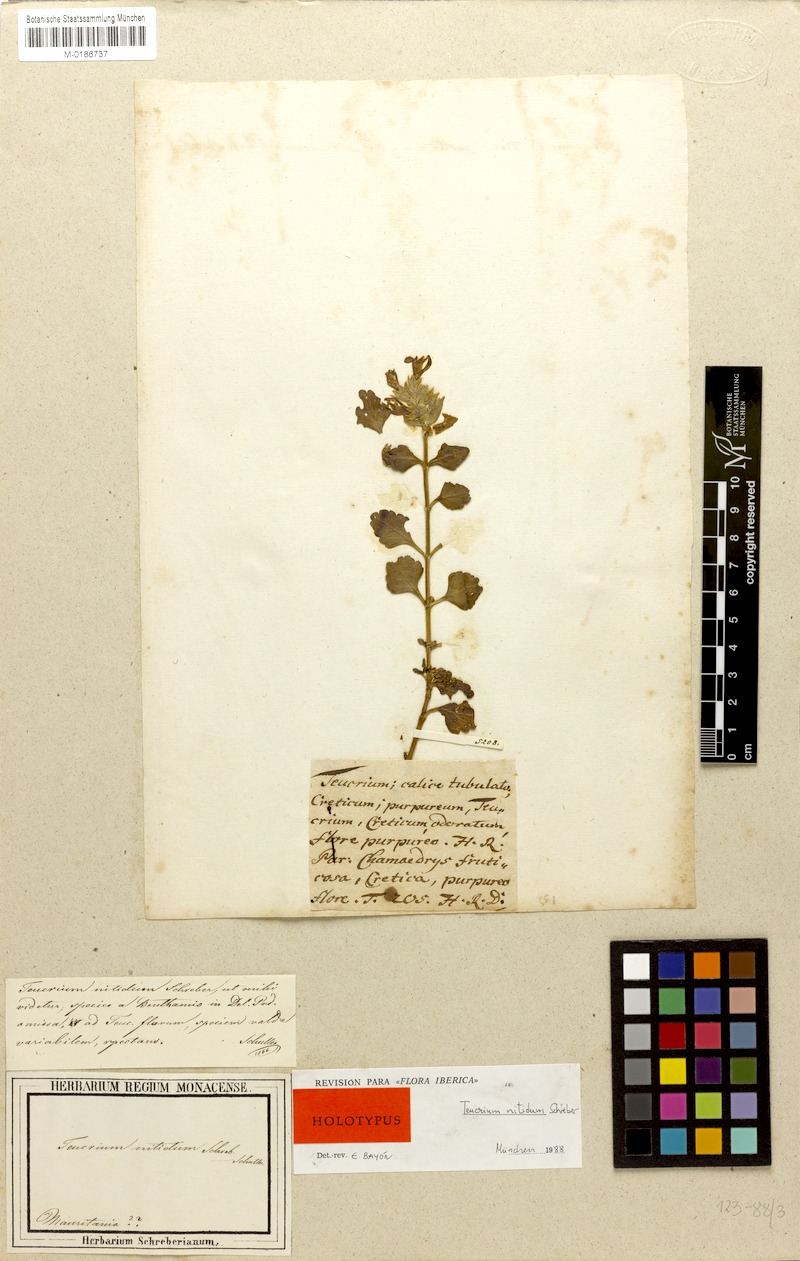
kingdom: Plantae
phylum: Tracheophyta
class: Magnoliopsida
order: Lamiales
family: Lamiaceae
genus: Teucrium
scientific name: Teucrium flavum
